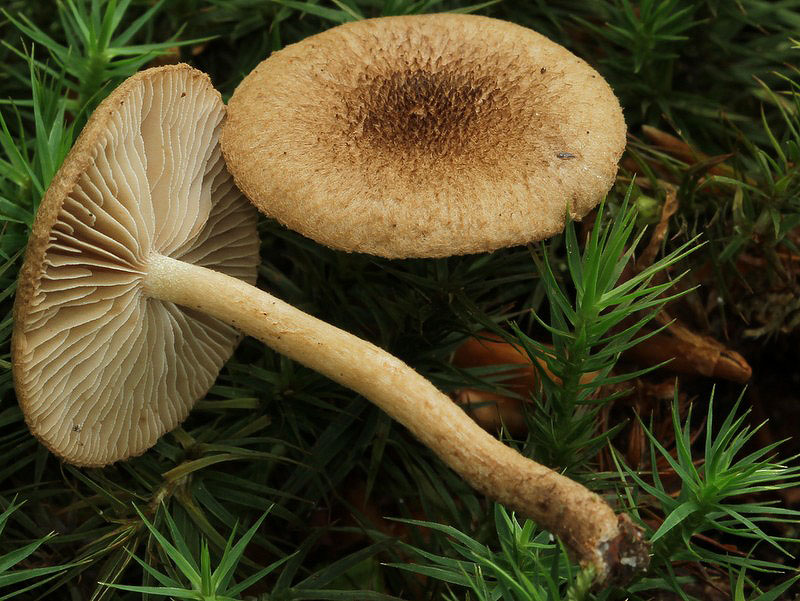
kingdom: Fungi
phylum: Basidiomycota
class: Agaricomycetes
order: Agaricales
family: Inocybaceae
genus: Inocybe
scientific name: Inocybe lanuginosa
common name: uldskællet trævlhat
